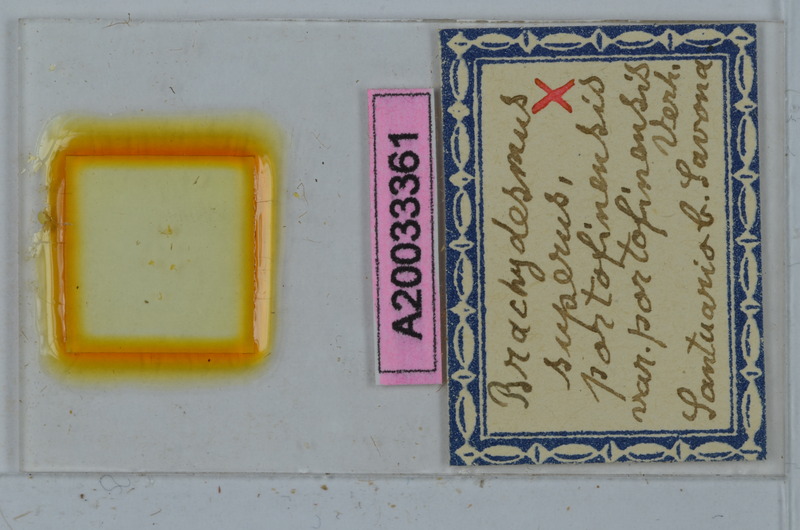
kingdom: Animalia
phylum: Arthropoda
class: Diplopoda
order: Polydesmida
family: Polydesmidae
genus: Brachydesmus
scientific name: Brachydesmus superus
